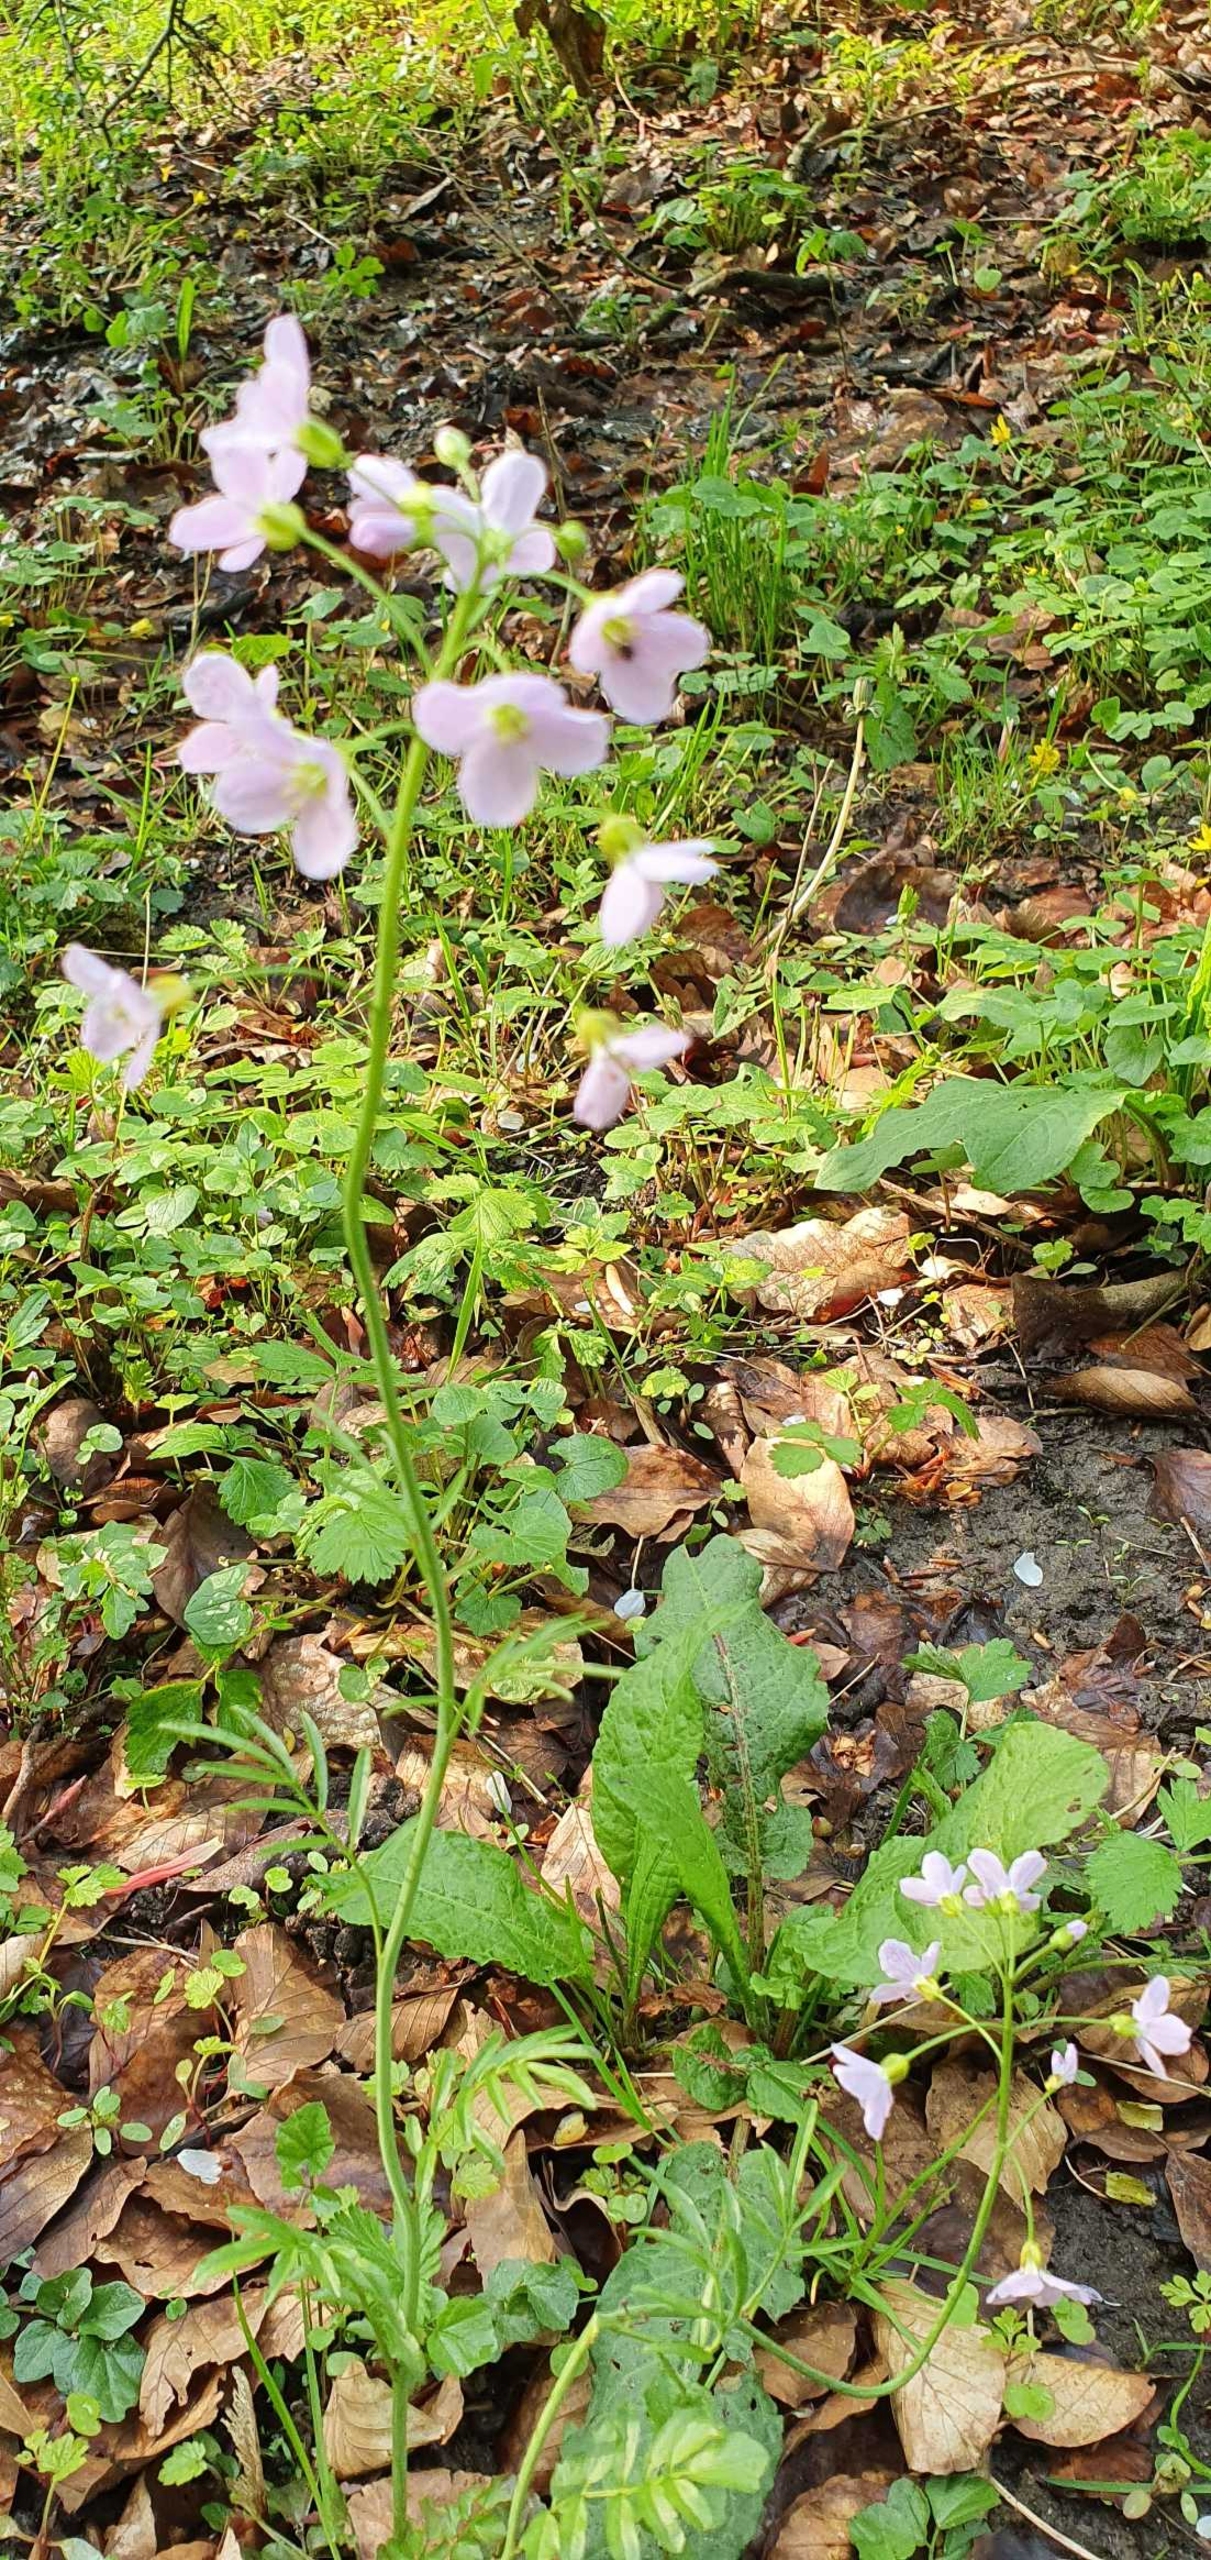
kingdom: Plantae
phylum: Tracheophyta
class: Magnoliopsida
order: Brassicales
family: Brassicaceae
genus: Cardamine
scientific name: Cardamine pratensis
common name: Engkarse
